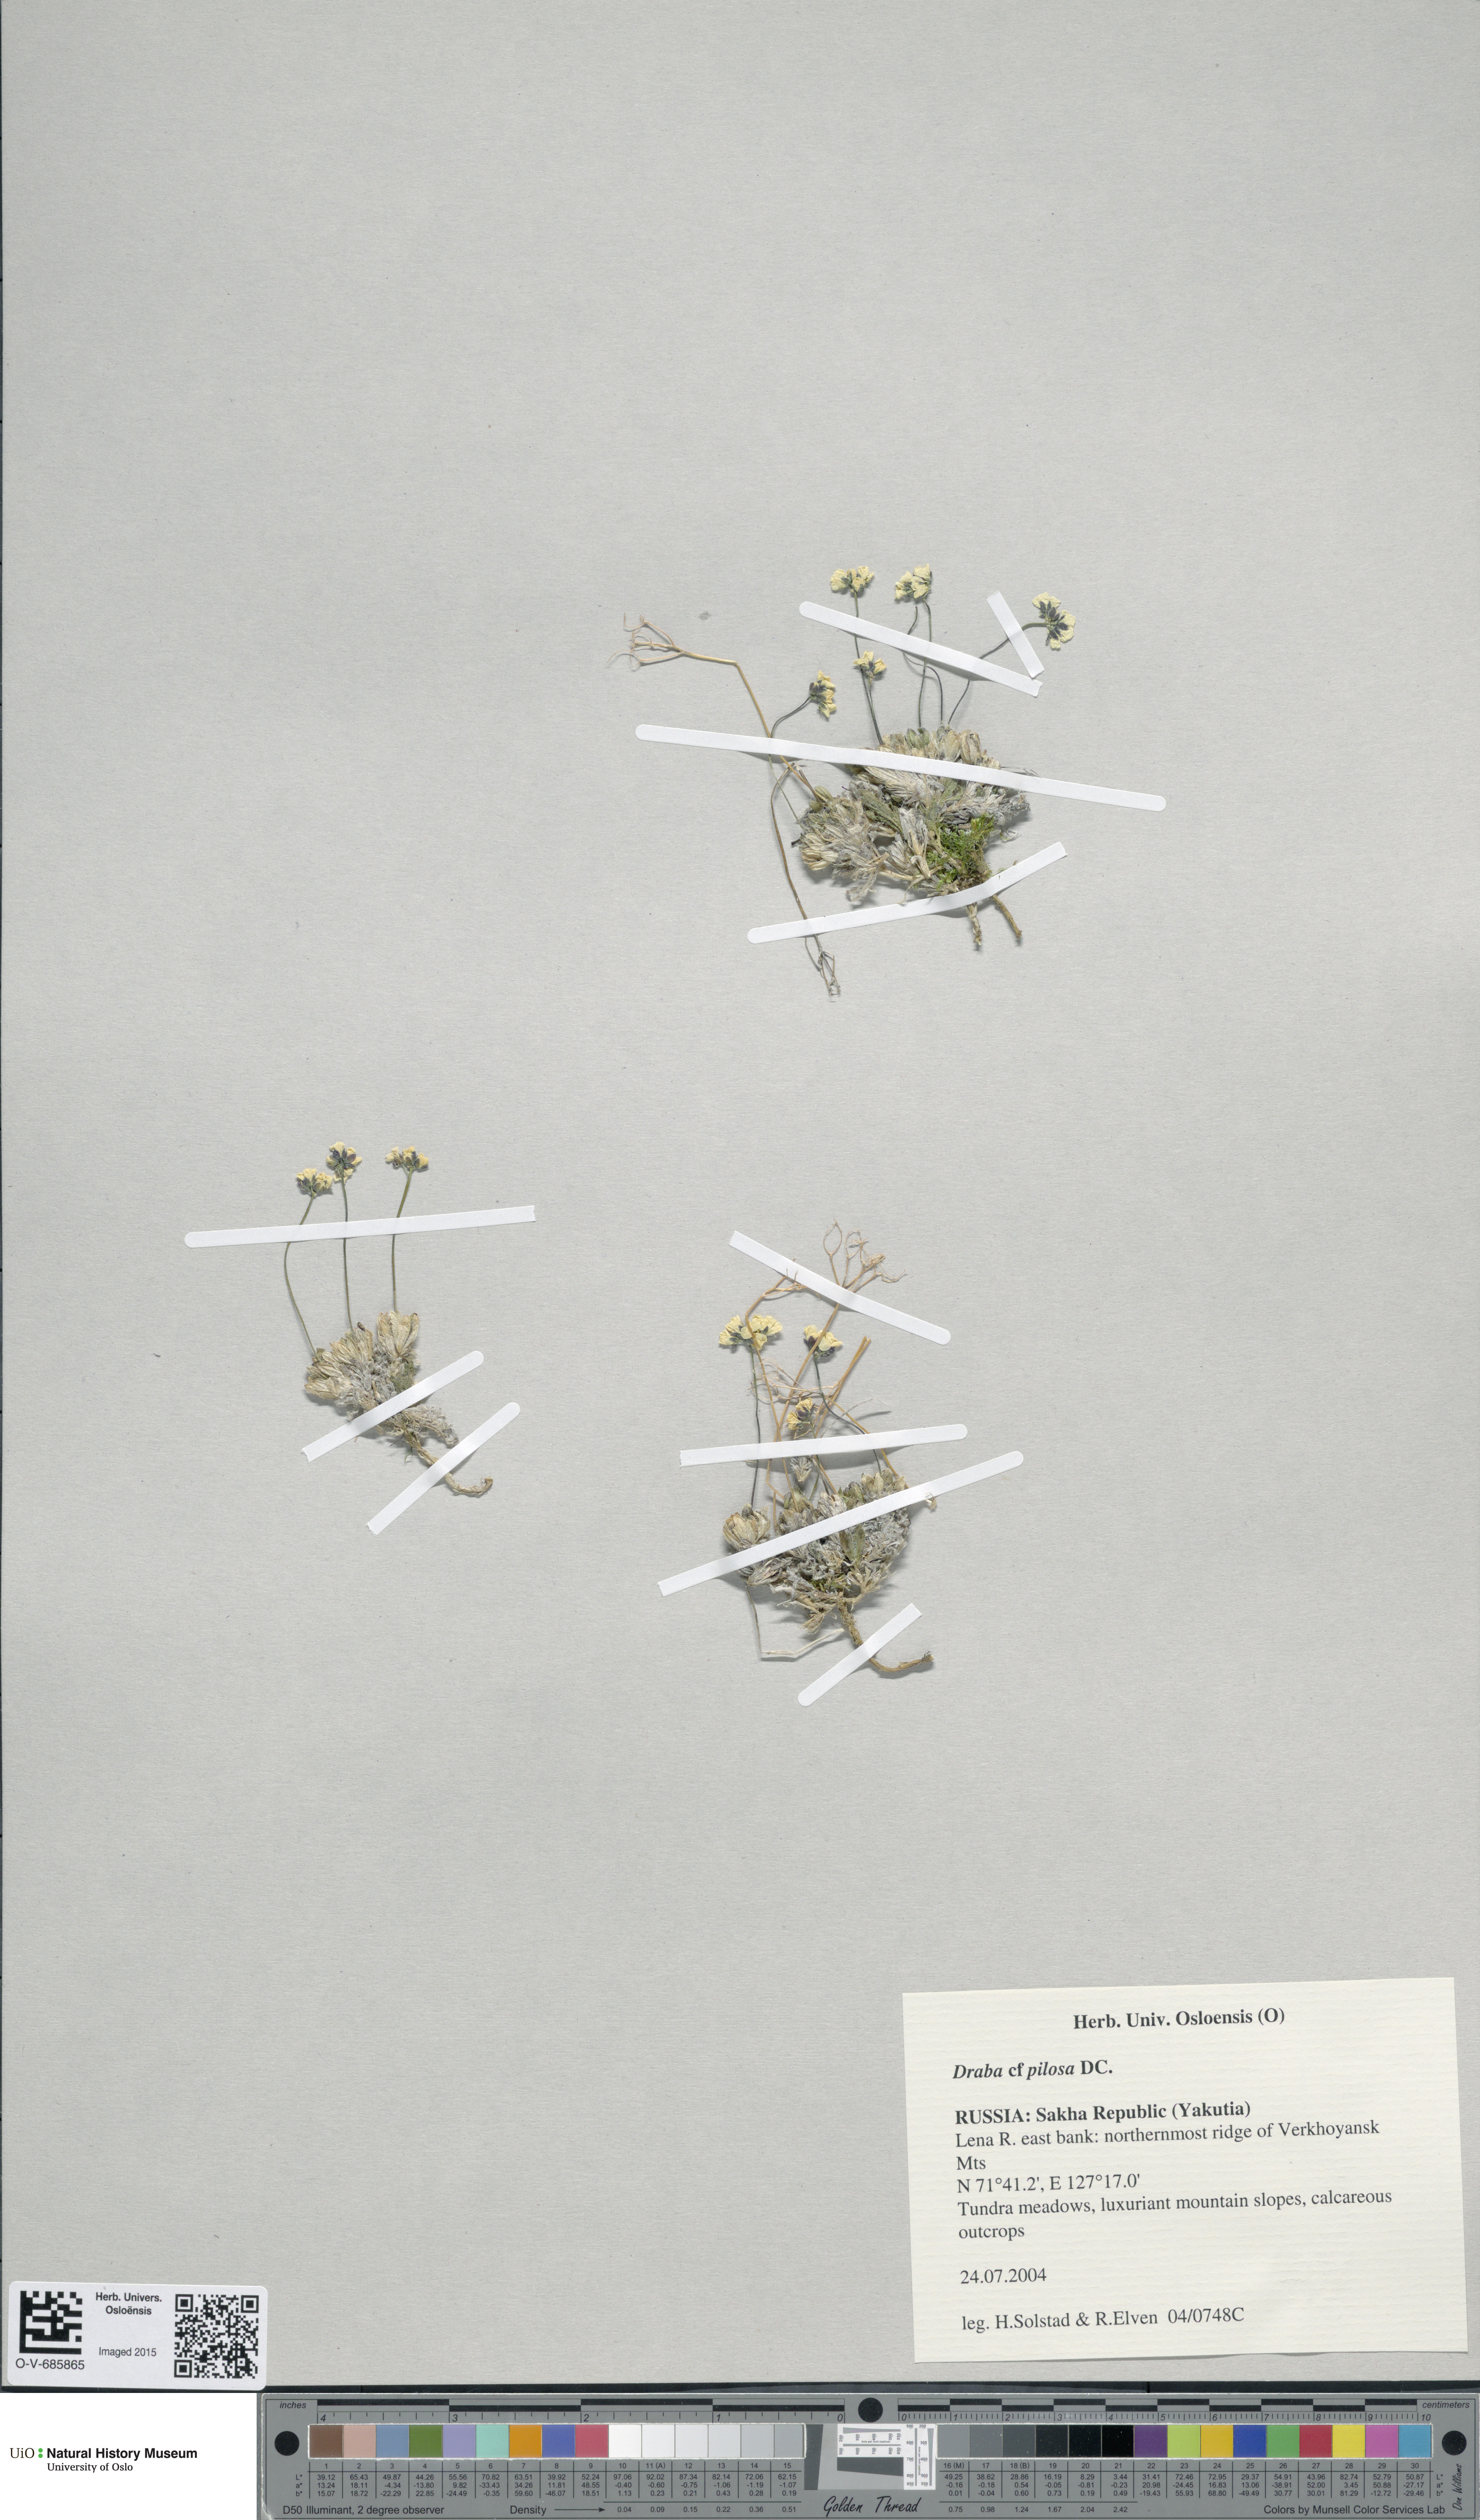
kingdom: Plantae
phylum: Tracheophyta
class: Magnoliopsida
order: Brassicales
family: Brassicaceae
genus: Draba
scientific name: Draba pilosa
